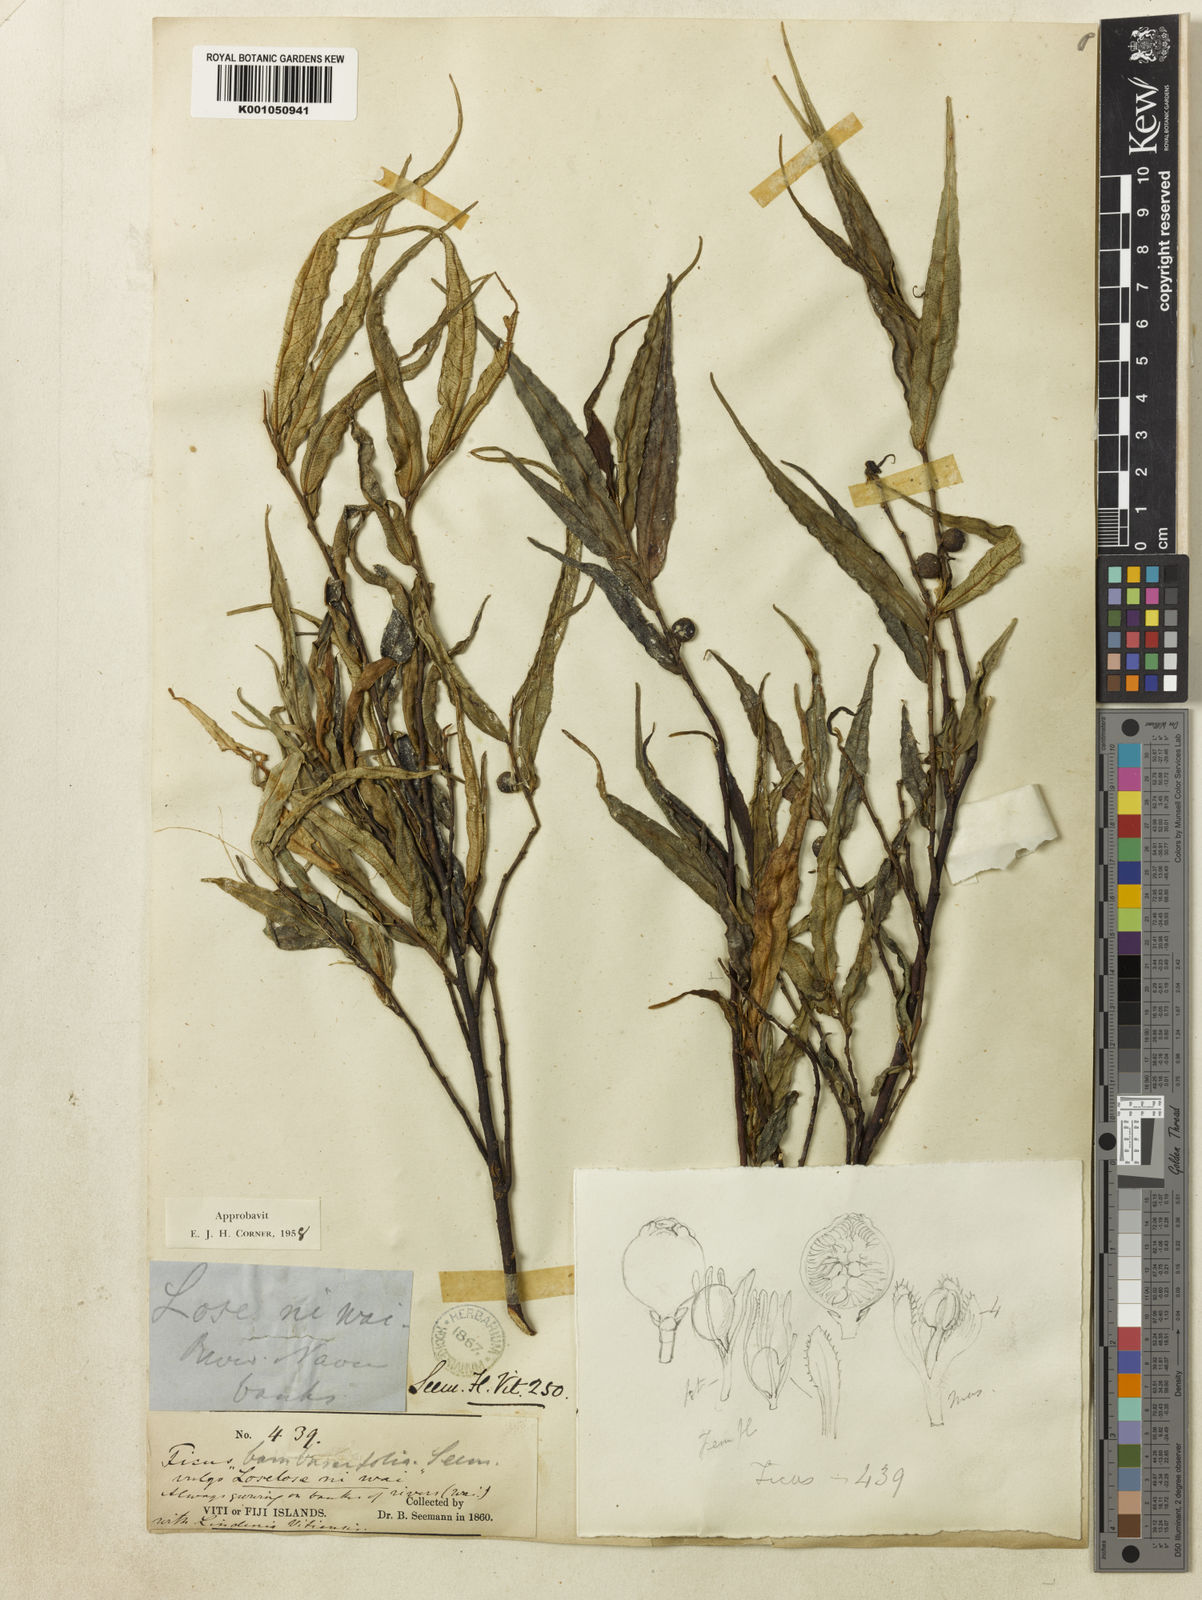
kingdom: Plantae
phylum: Tracheophyta
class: Magnoliopsida
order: Rosales
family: Moraceae
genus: Ficus
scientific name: Ficus bambusifolia
